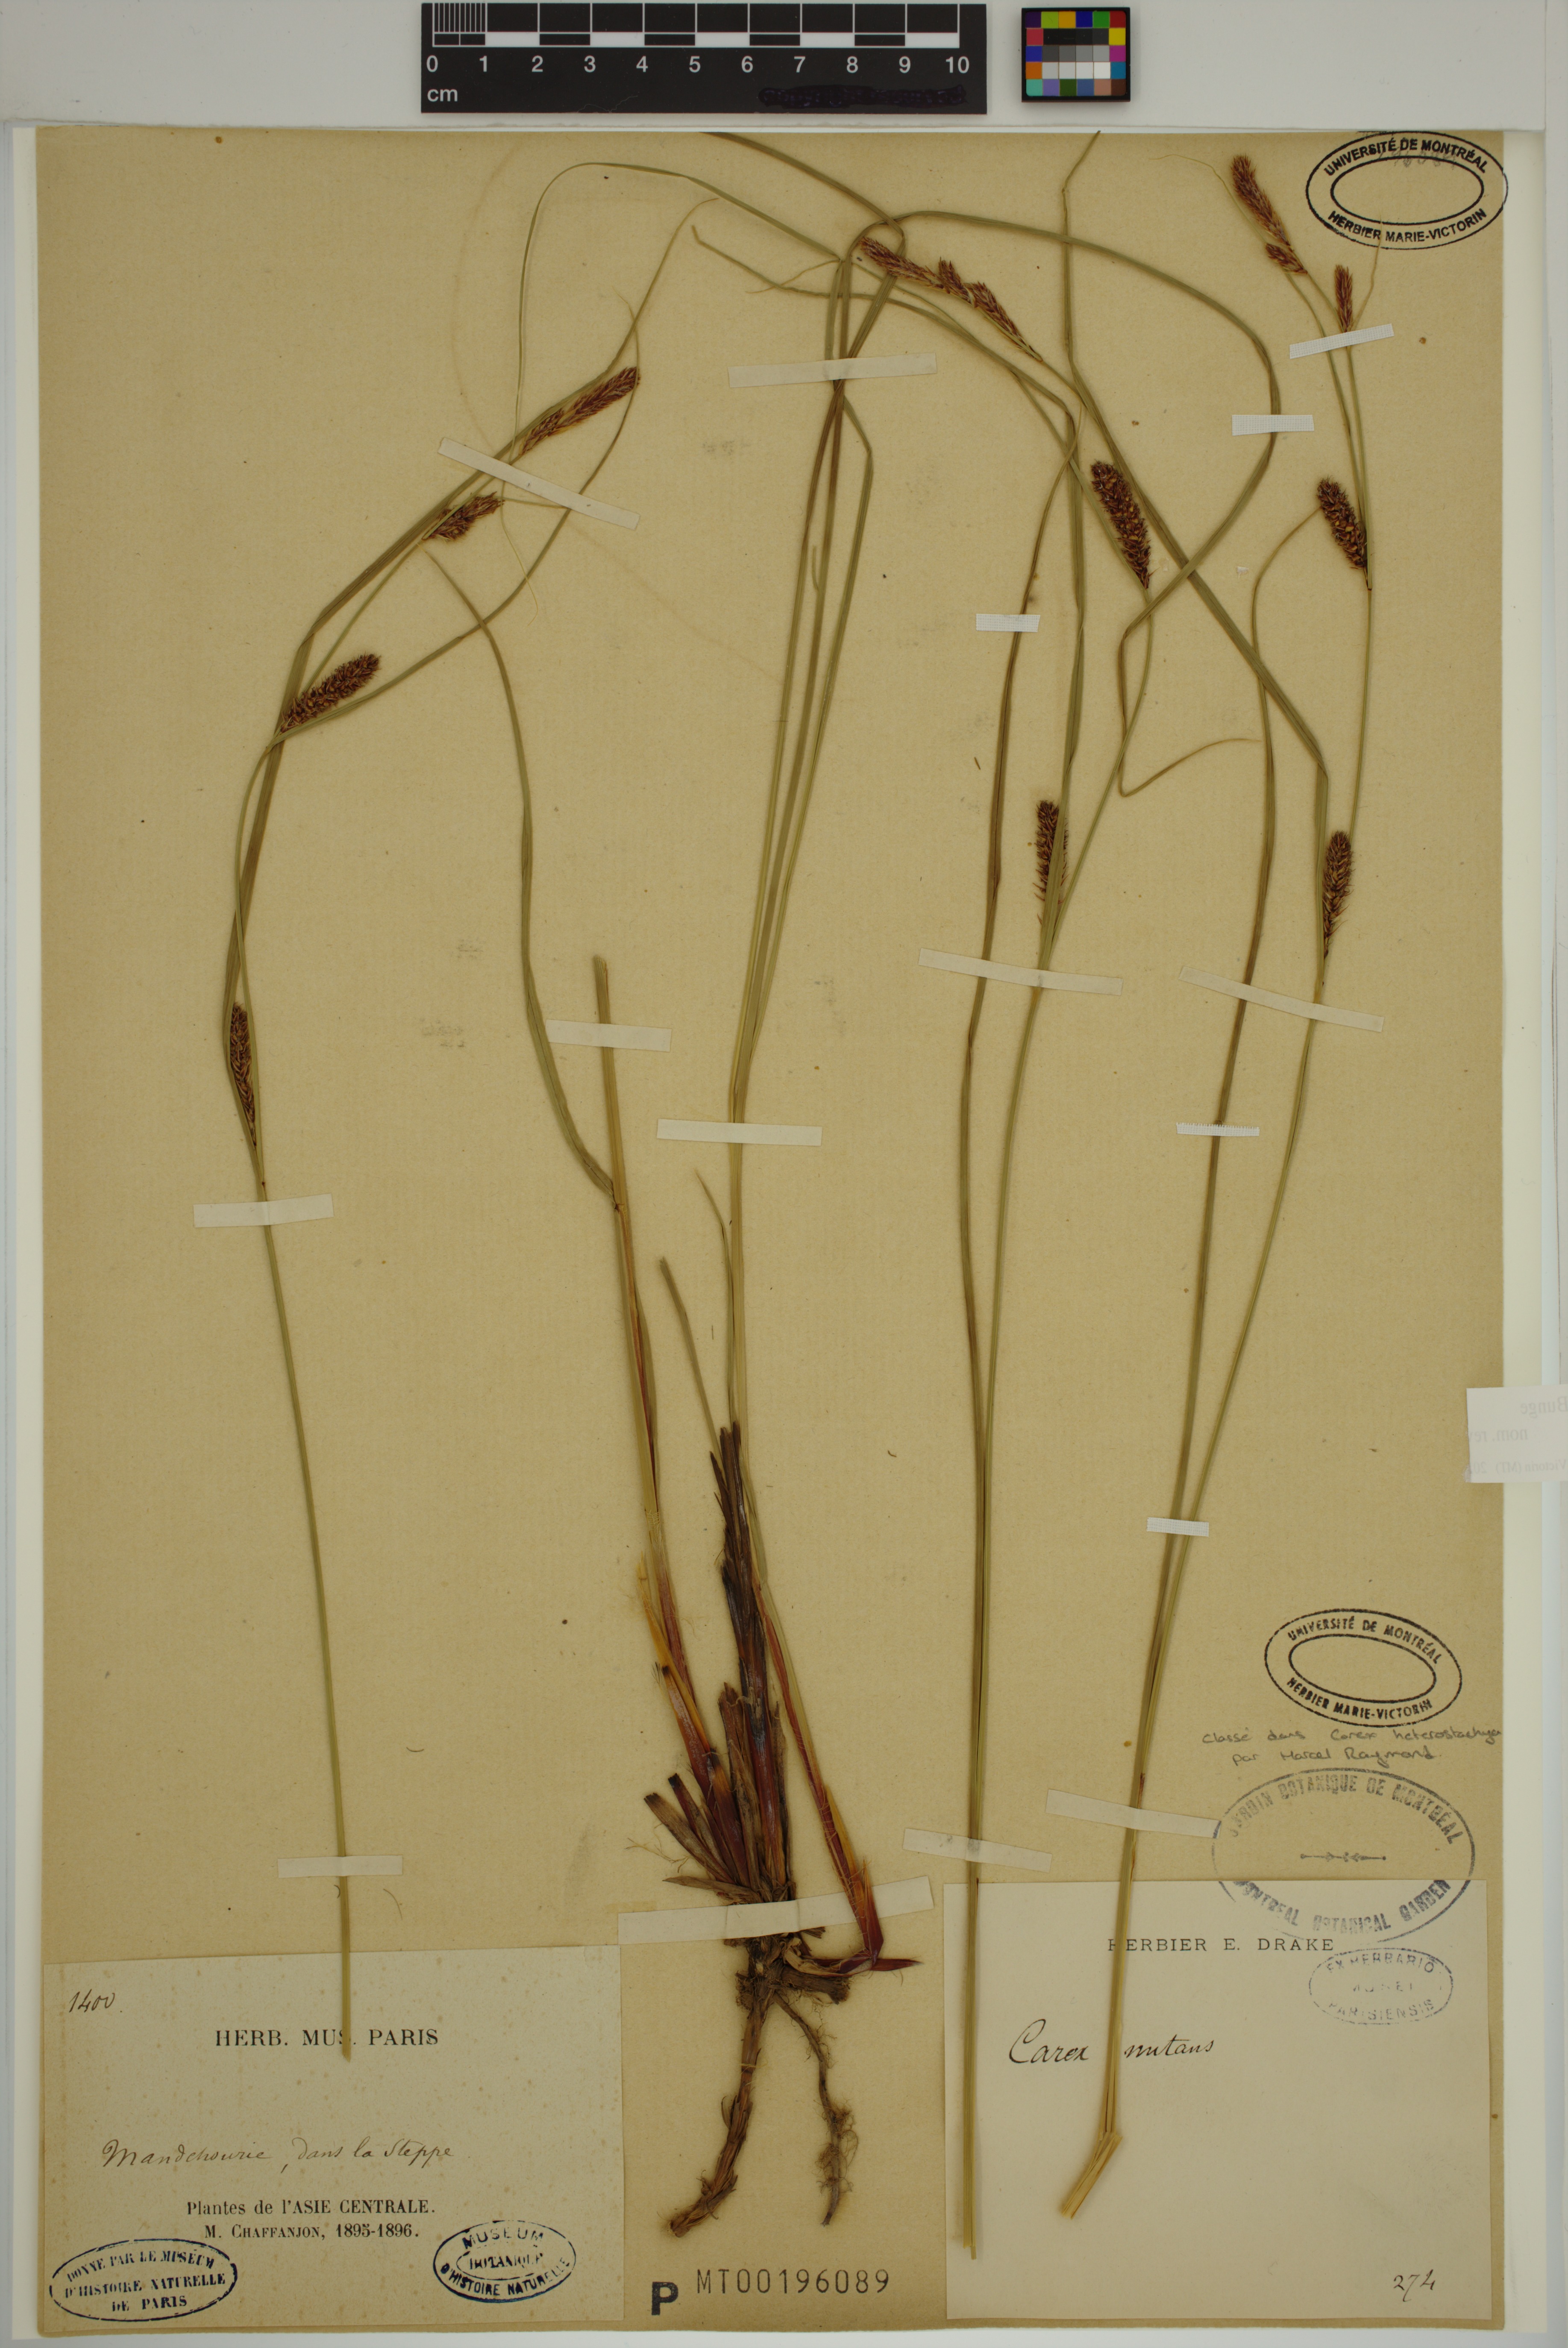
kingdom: Plantae
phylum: Tracheophyta
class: Liliopsida
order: Poales
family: Cyperaceae
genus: Carex
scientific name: Carex heterostachya
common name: Different-spike sedge
